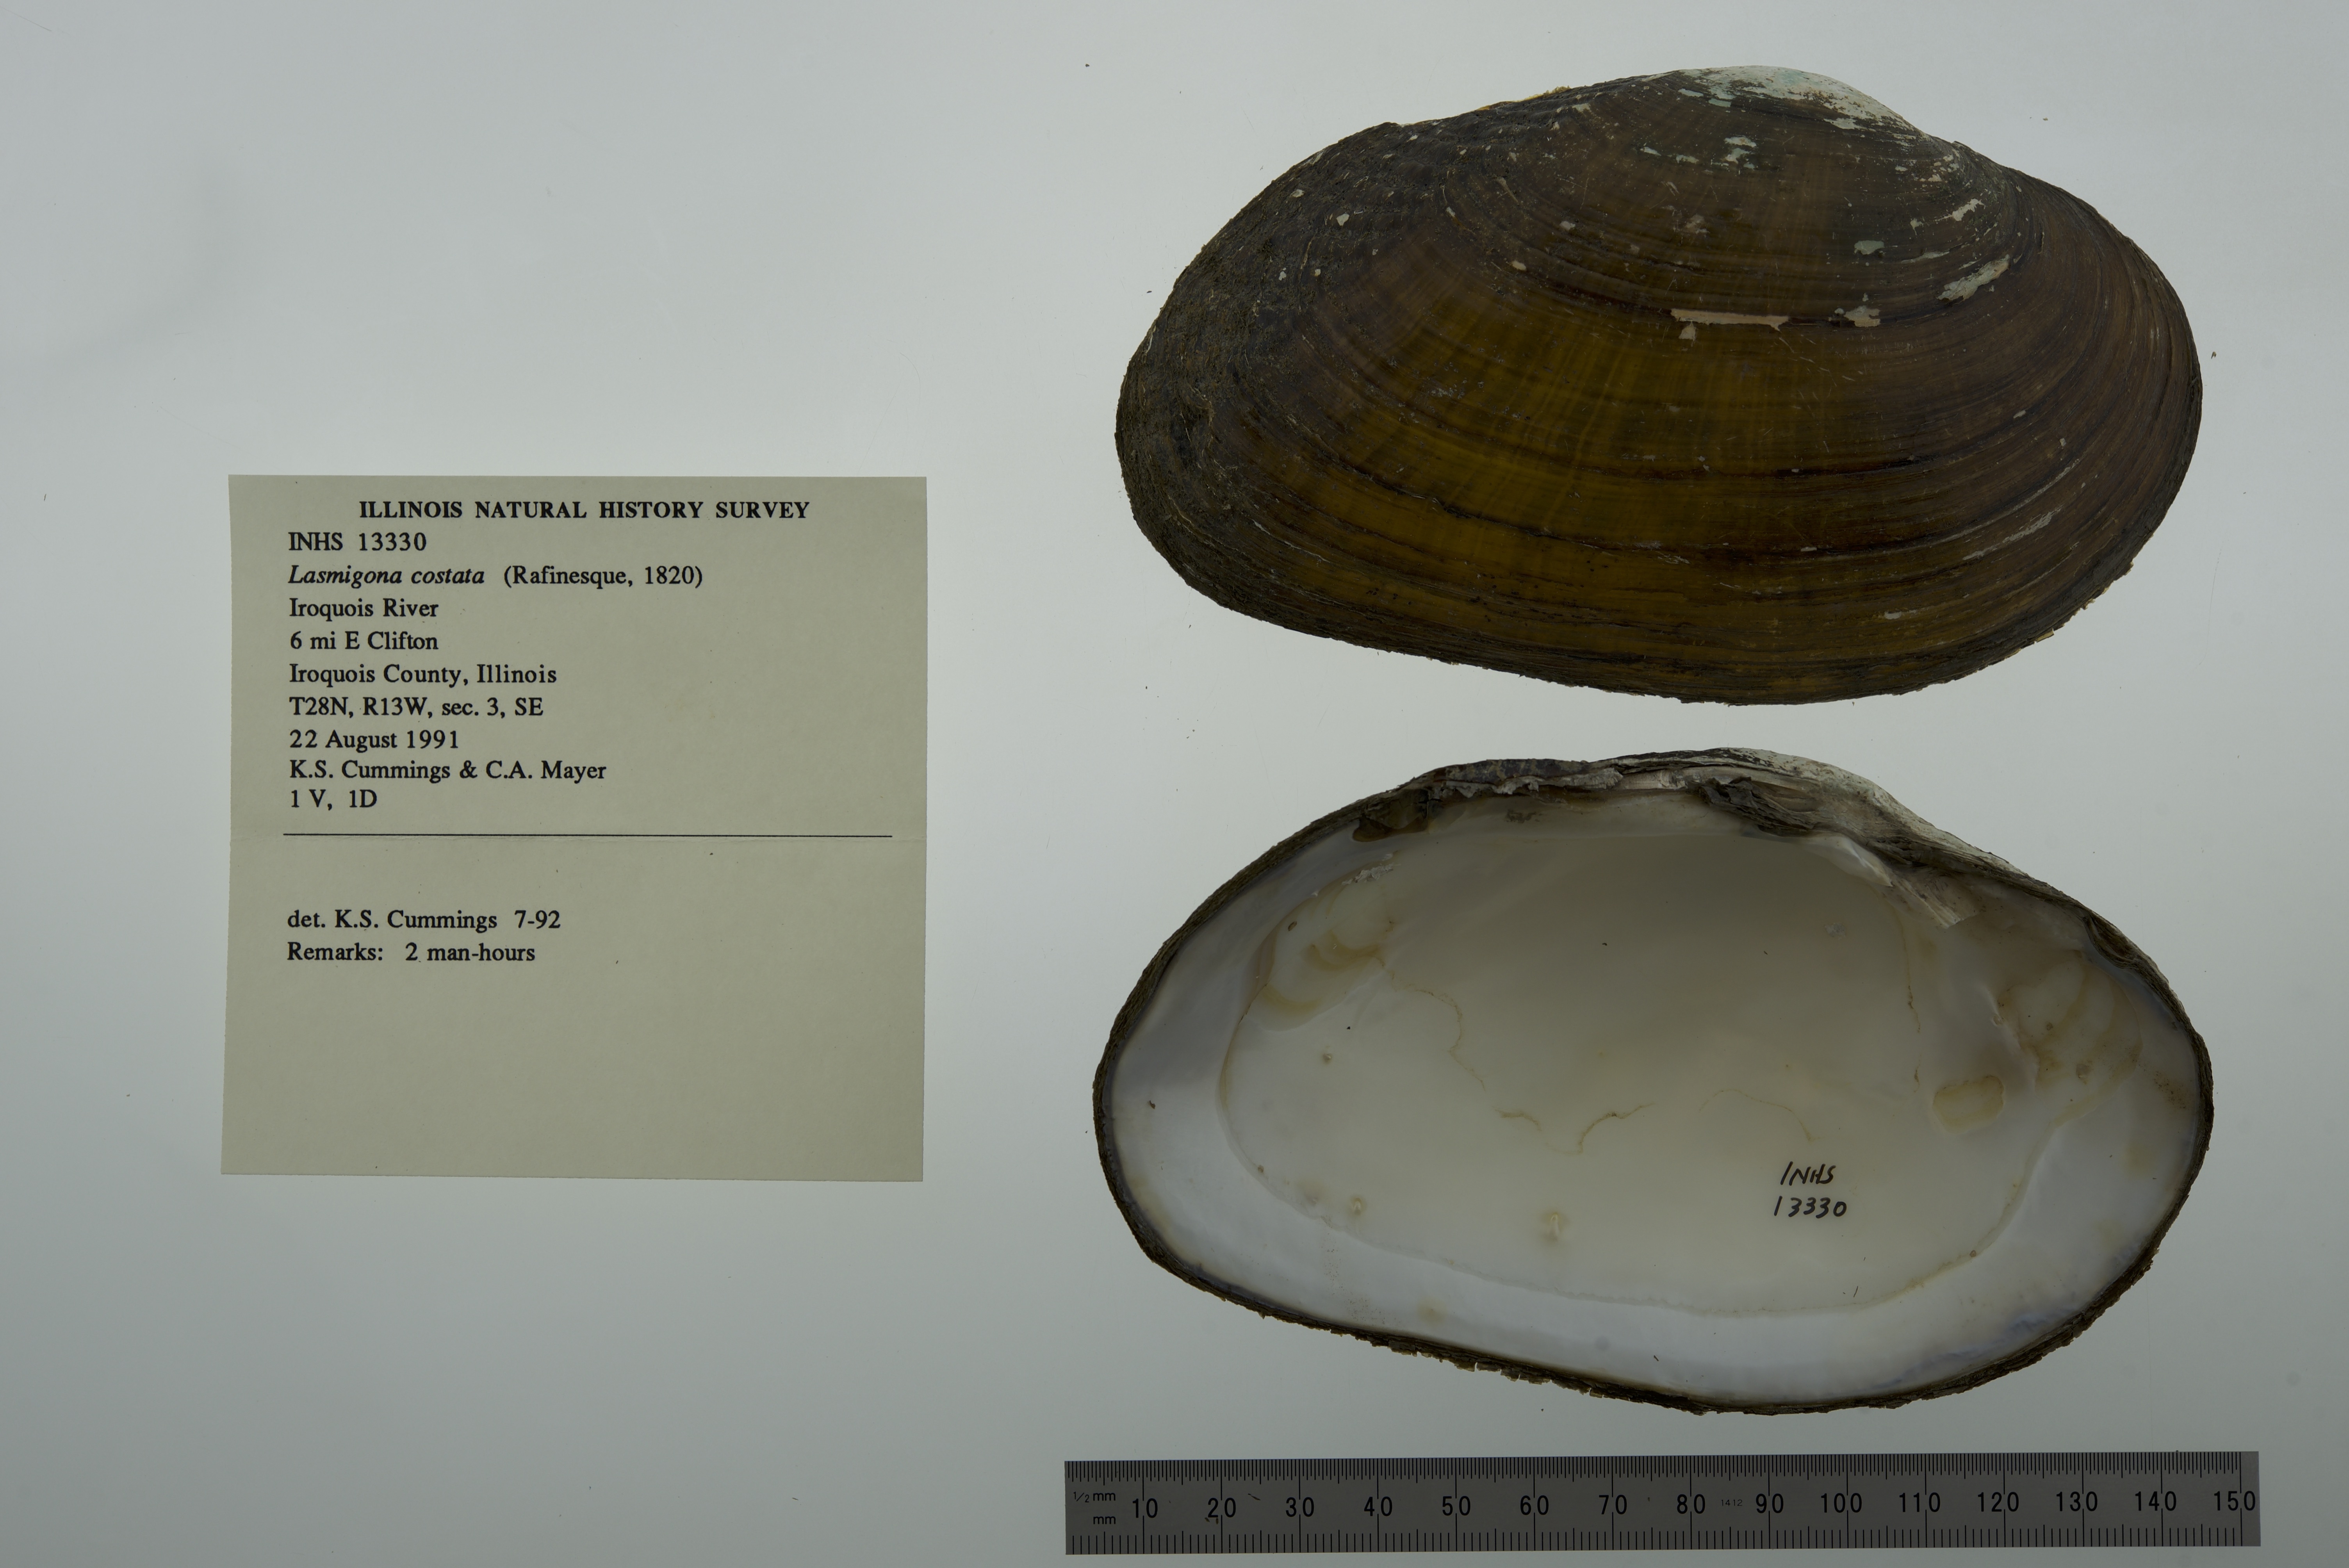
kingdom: Animalia
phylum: Mollusca
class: Bivalvia
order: Unionida
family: Unionidae
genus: Lasmigona
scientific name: Lasmigona costata
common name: Flutedshell
